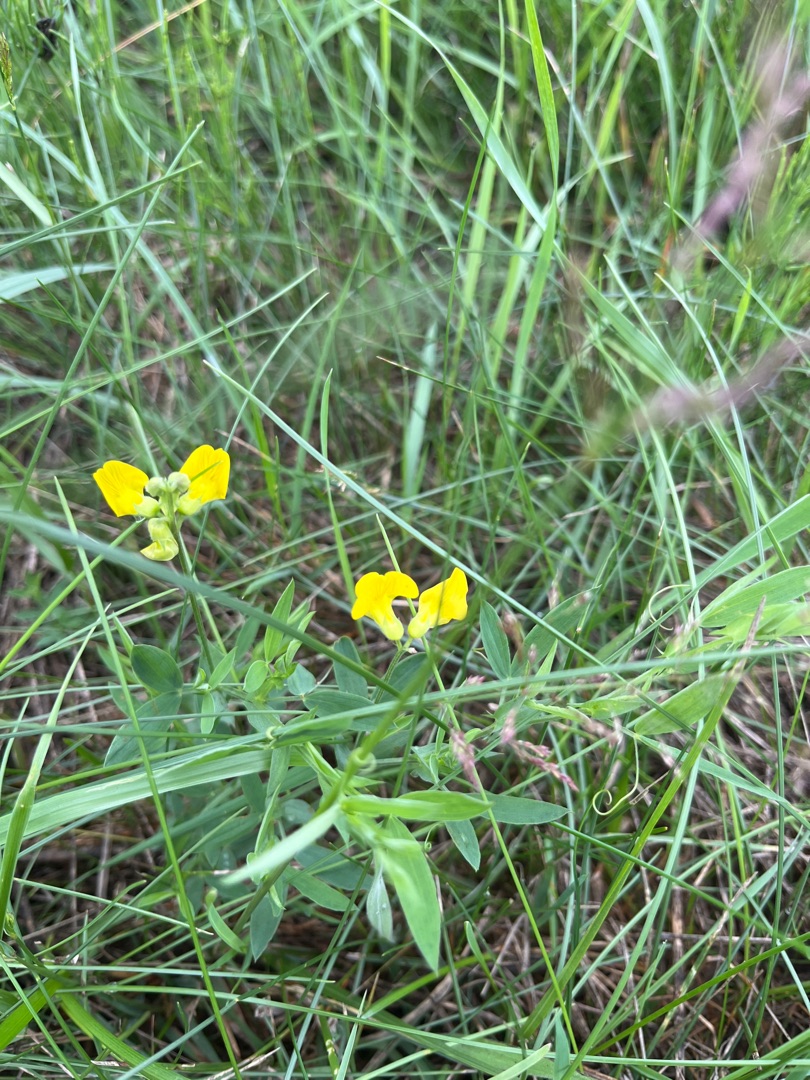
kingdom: Plantae
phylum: Tracheophyta
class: Magnoliopsida
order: Fabales
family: Fabaceae
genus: Lathyrus
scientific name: Lathyrus pratensis
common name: Gul fladbælg
